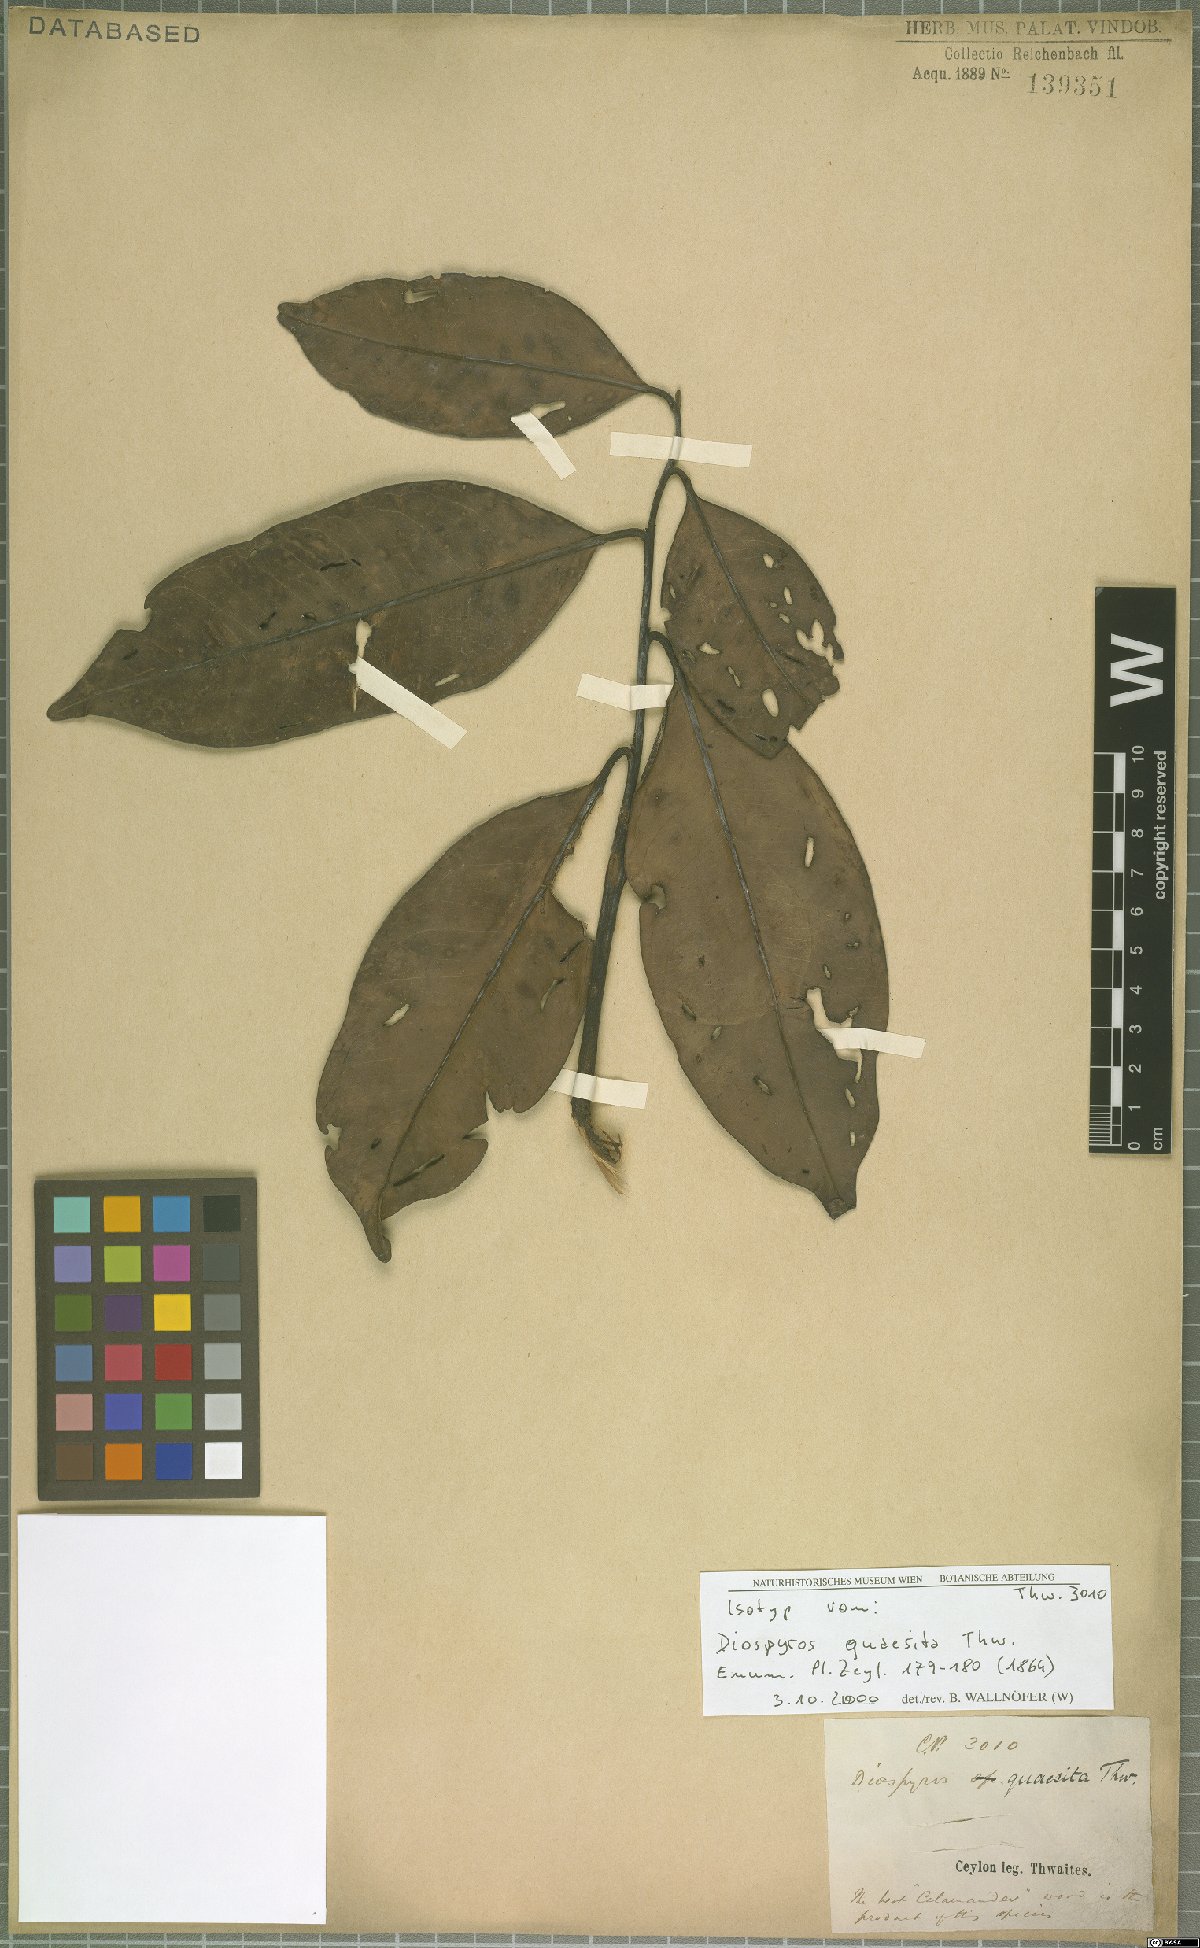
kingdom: Plantae
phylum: Tracheophyta
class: Magnoliopsida
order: Ericales
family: Ebenaceae
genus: Diospyros
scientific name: Diospyros quaesita
